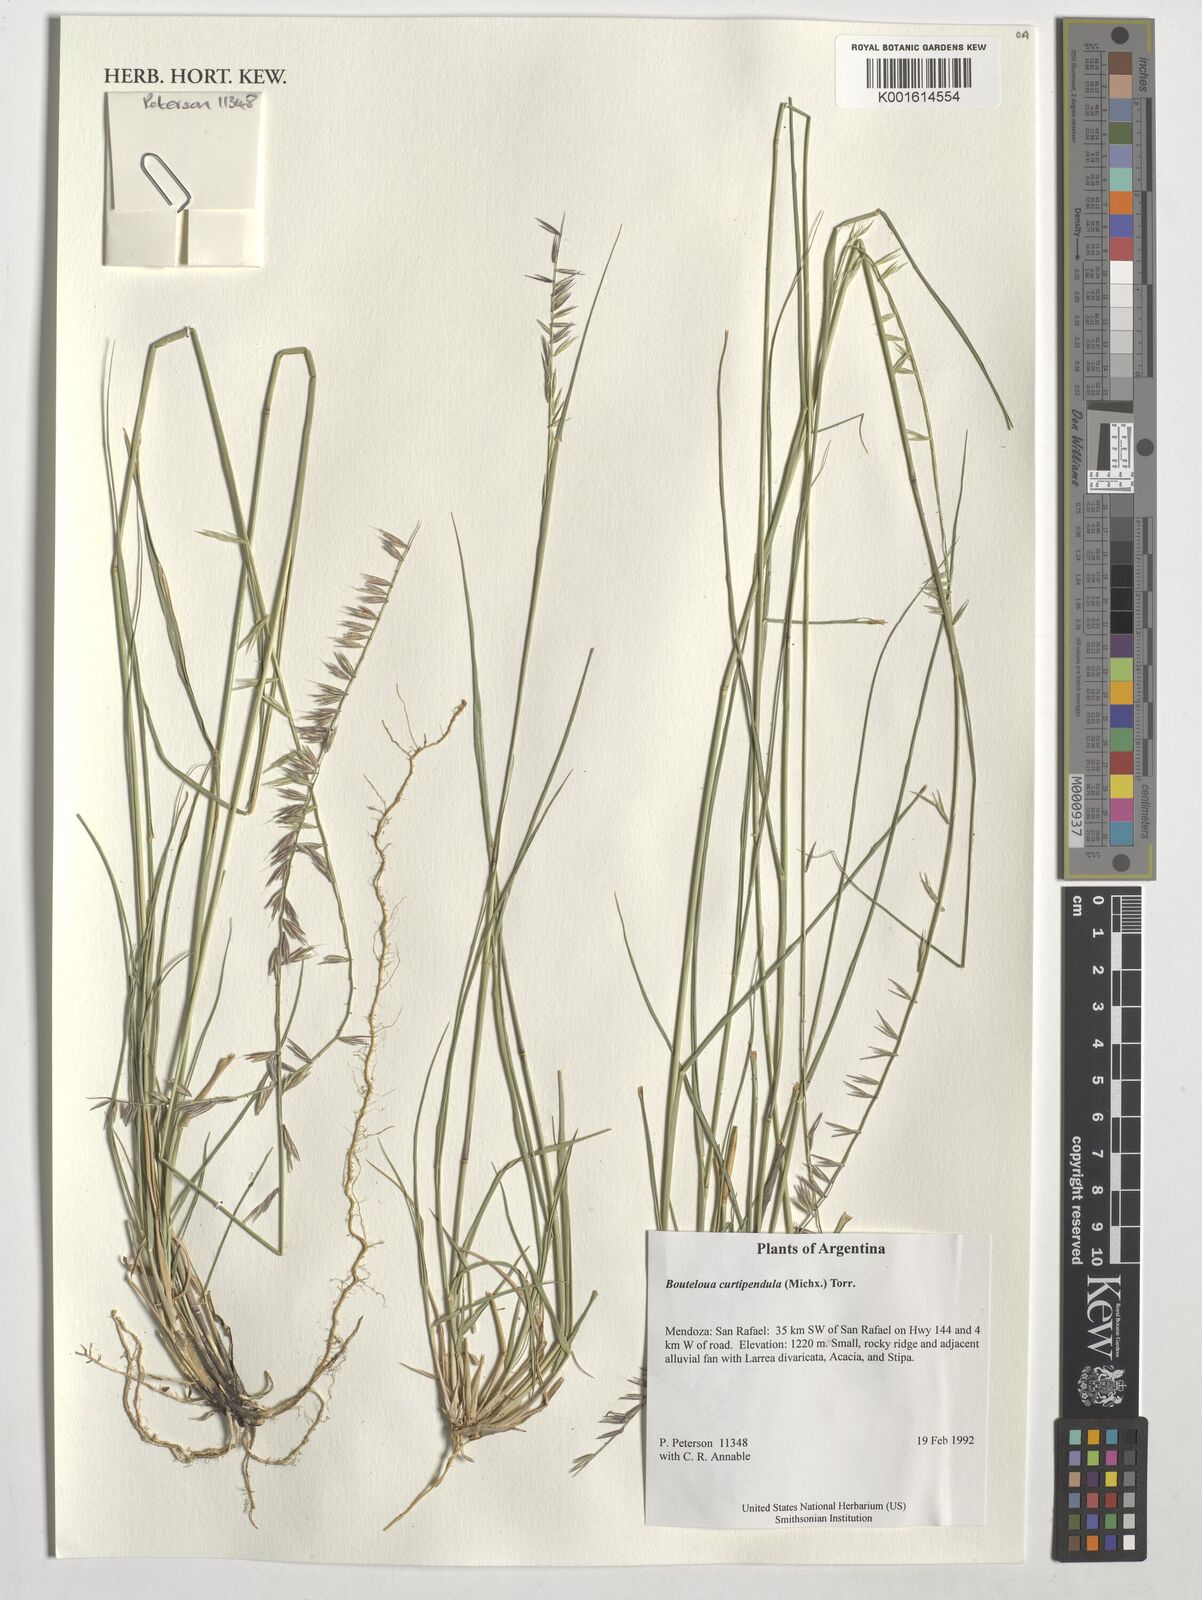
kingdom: Plantae
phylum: Tracheophyta
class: Liliopsida
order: Poales
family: Poaceae
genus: Bouteloua
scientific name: Bouteloua curtipendula
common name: Side-oats grama
